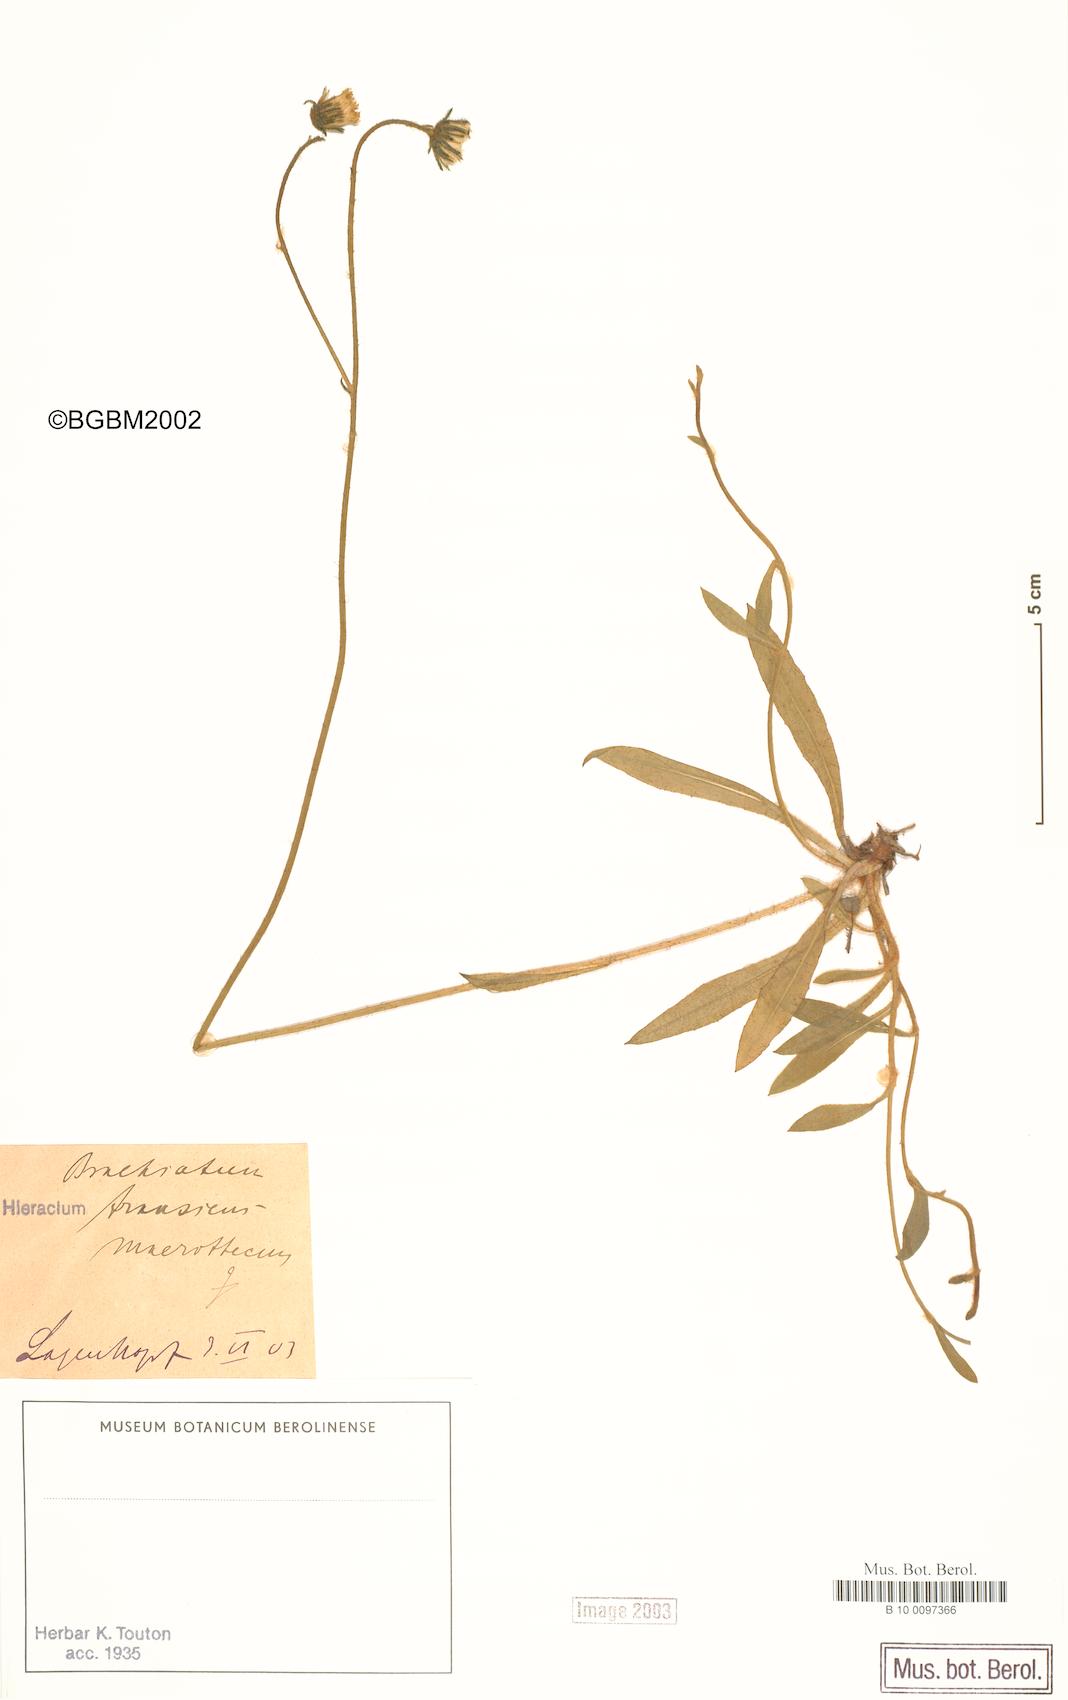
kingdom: Plantae
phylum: Tracheophyta
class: Magnoliopsida
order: Asterales
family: Asteraceae
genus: Pilosella
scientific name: Pilosella acutifolia
